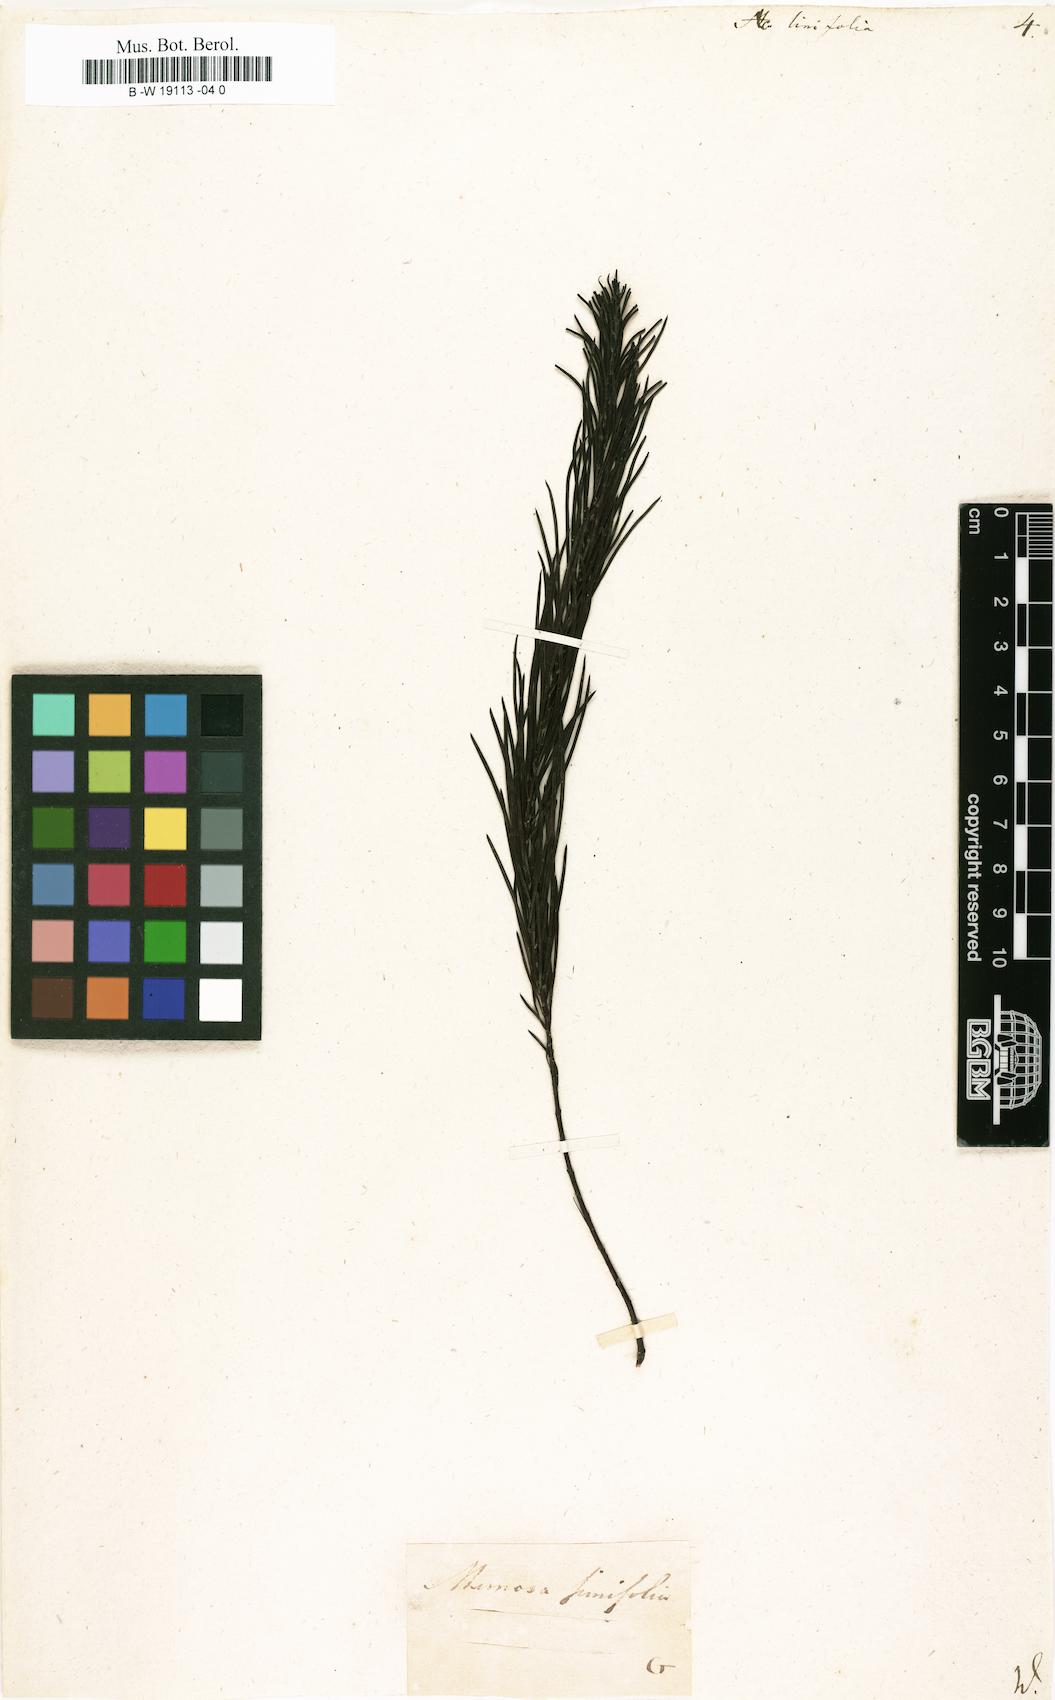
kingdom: Plantae
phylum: Tracheophyta
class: Magnoliopsida
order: Fabales
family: Fabaceae
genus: Acacia
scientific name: Acacia linifolia
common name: White wattle
